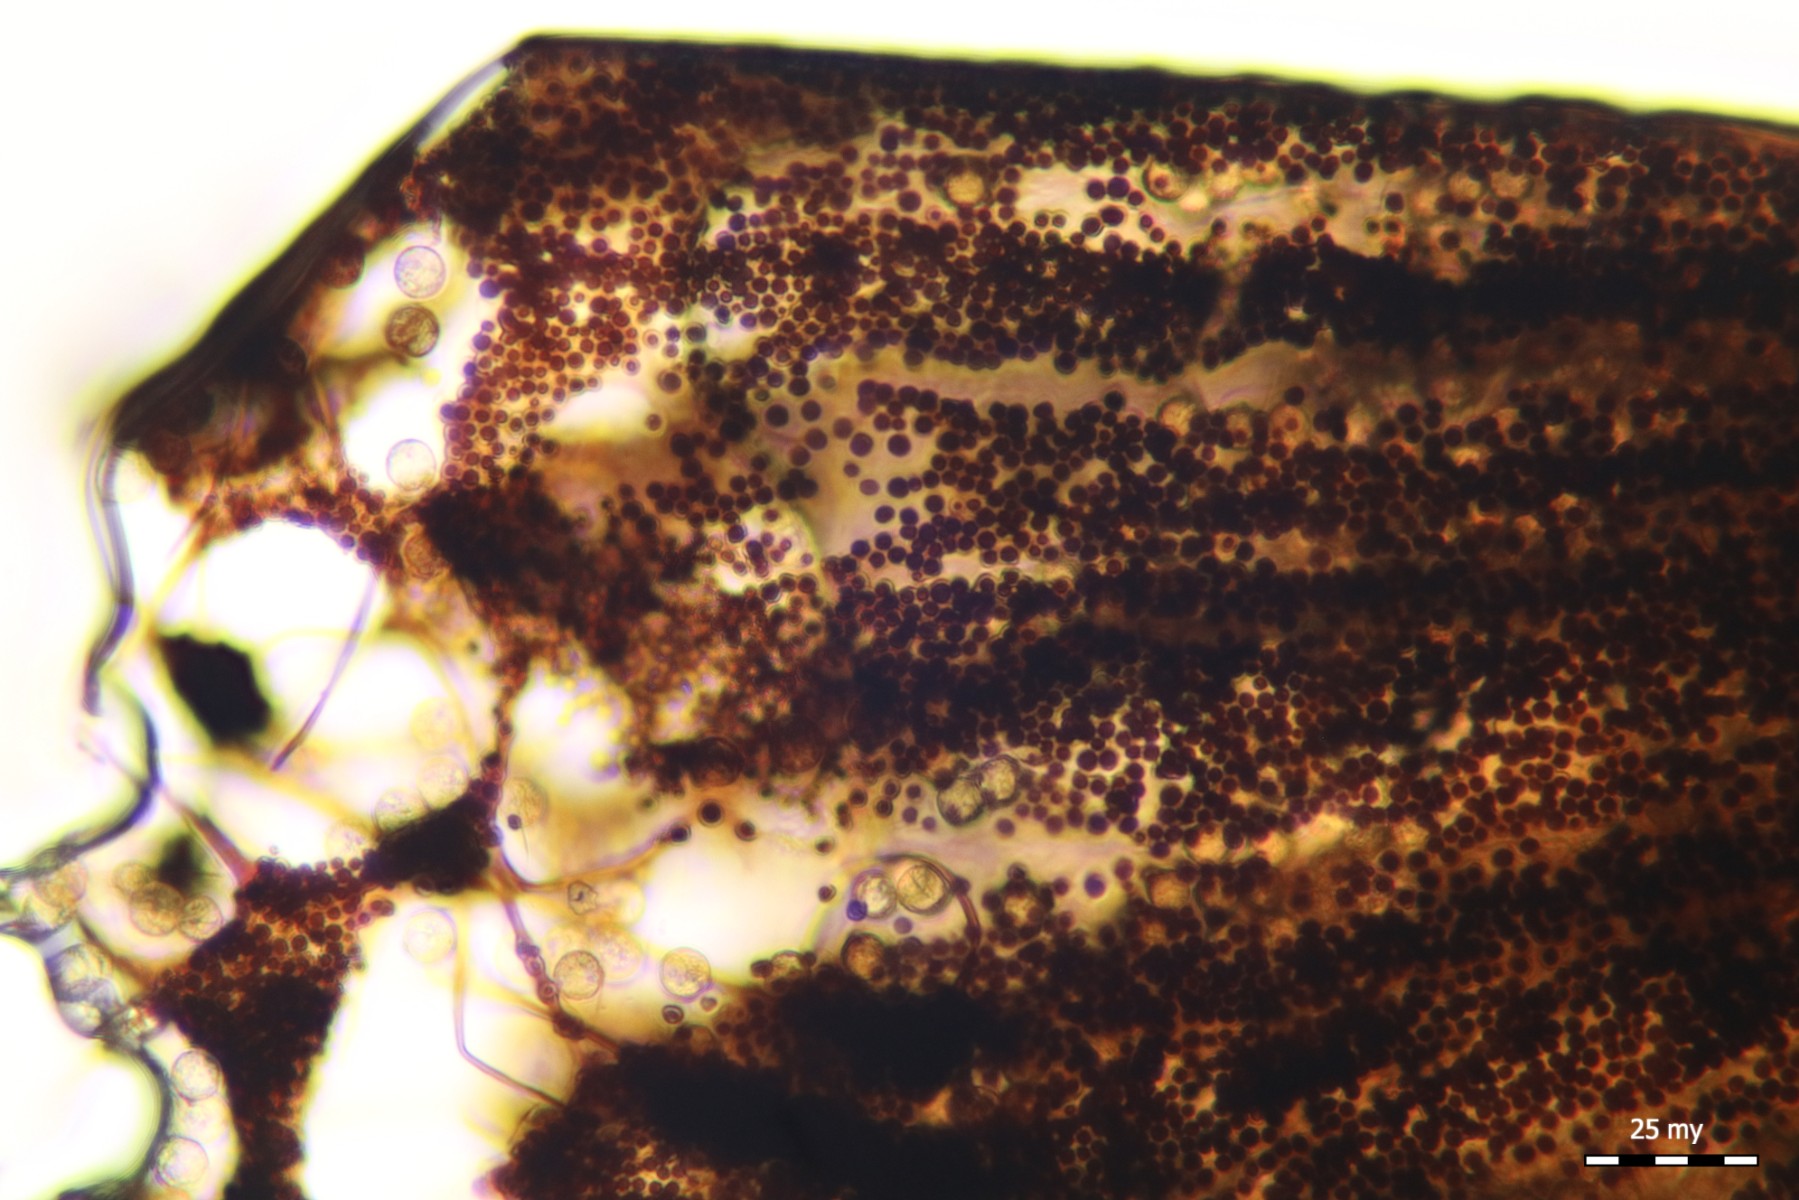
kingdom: Protozoa
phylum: Mycetozoa
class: Myxomycetes
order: Cribrariales
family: Cribrariaceae
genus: Cribraria
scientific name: Cribraria piriformis
